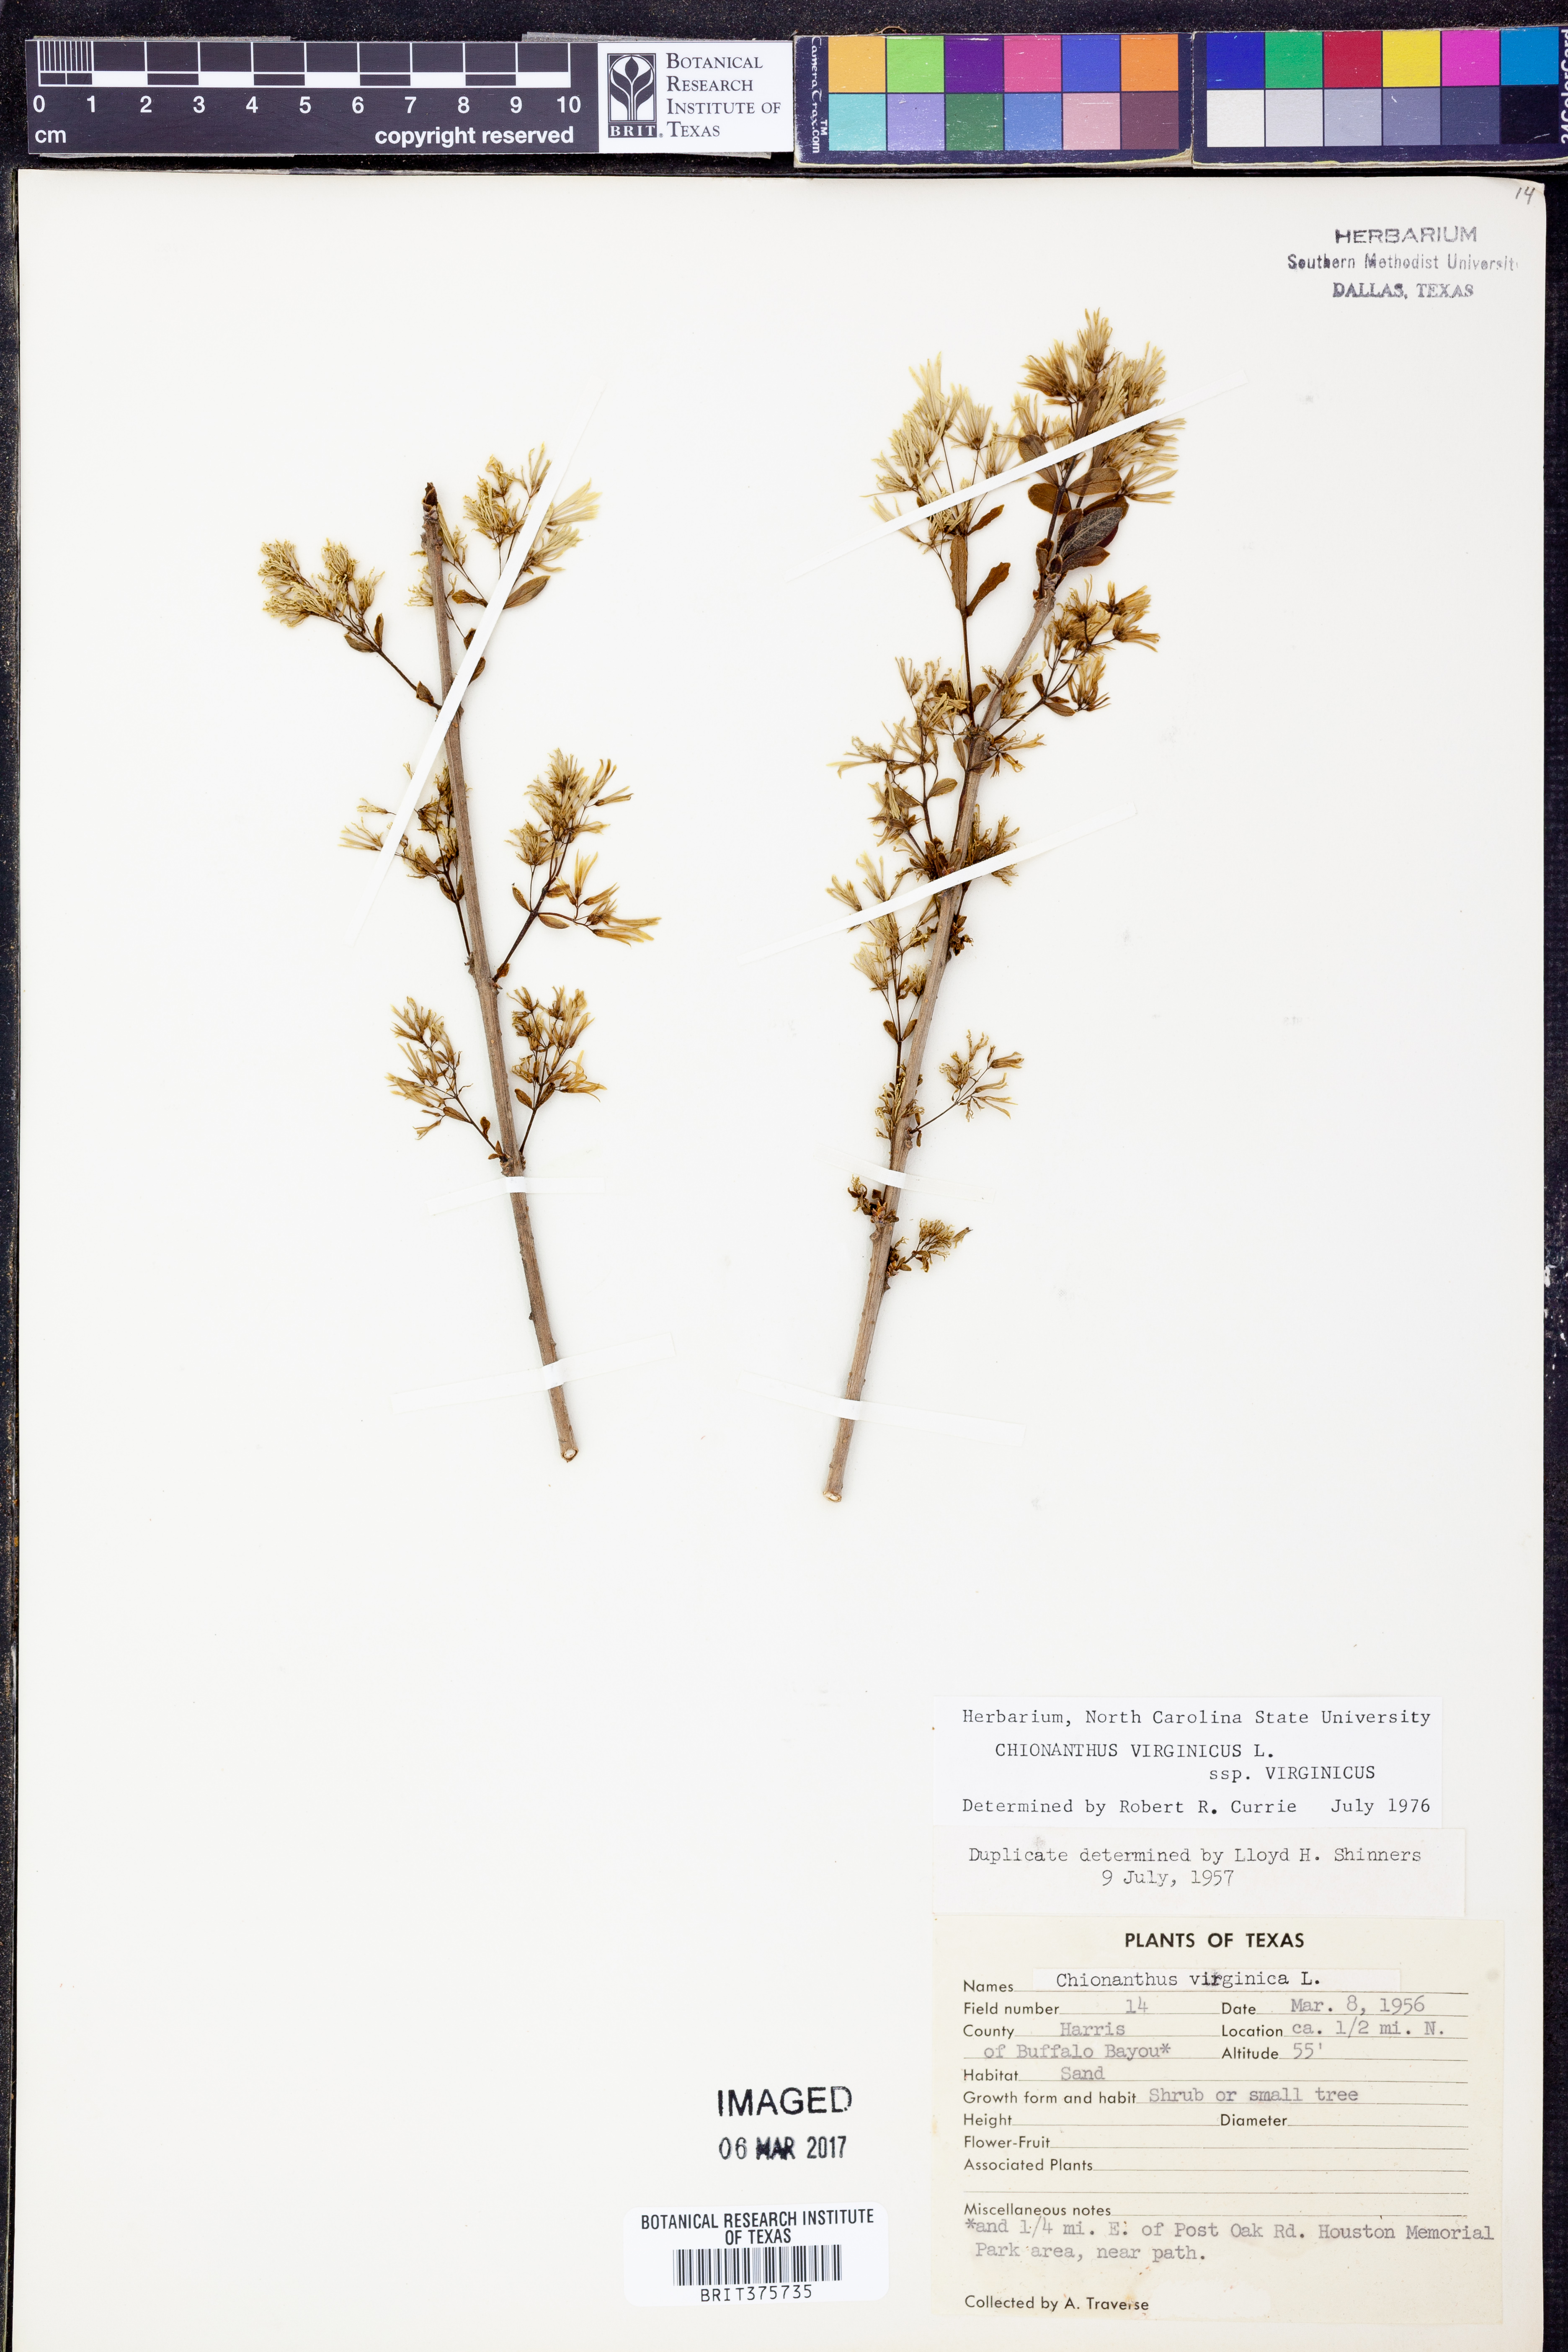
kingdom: Plantae
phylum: Tracheophyta
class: Magnoliopsida
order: Lamiales
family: Oleaceae
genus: Chionanthus
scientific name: Chionanthus virginicus
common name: American fringetree
